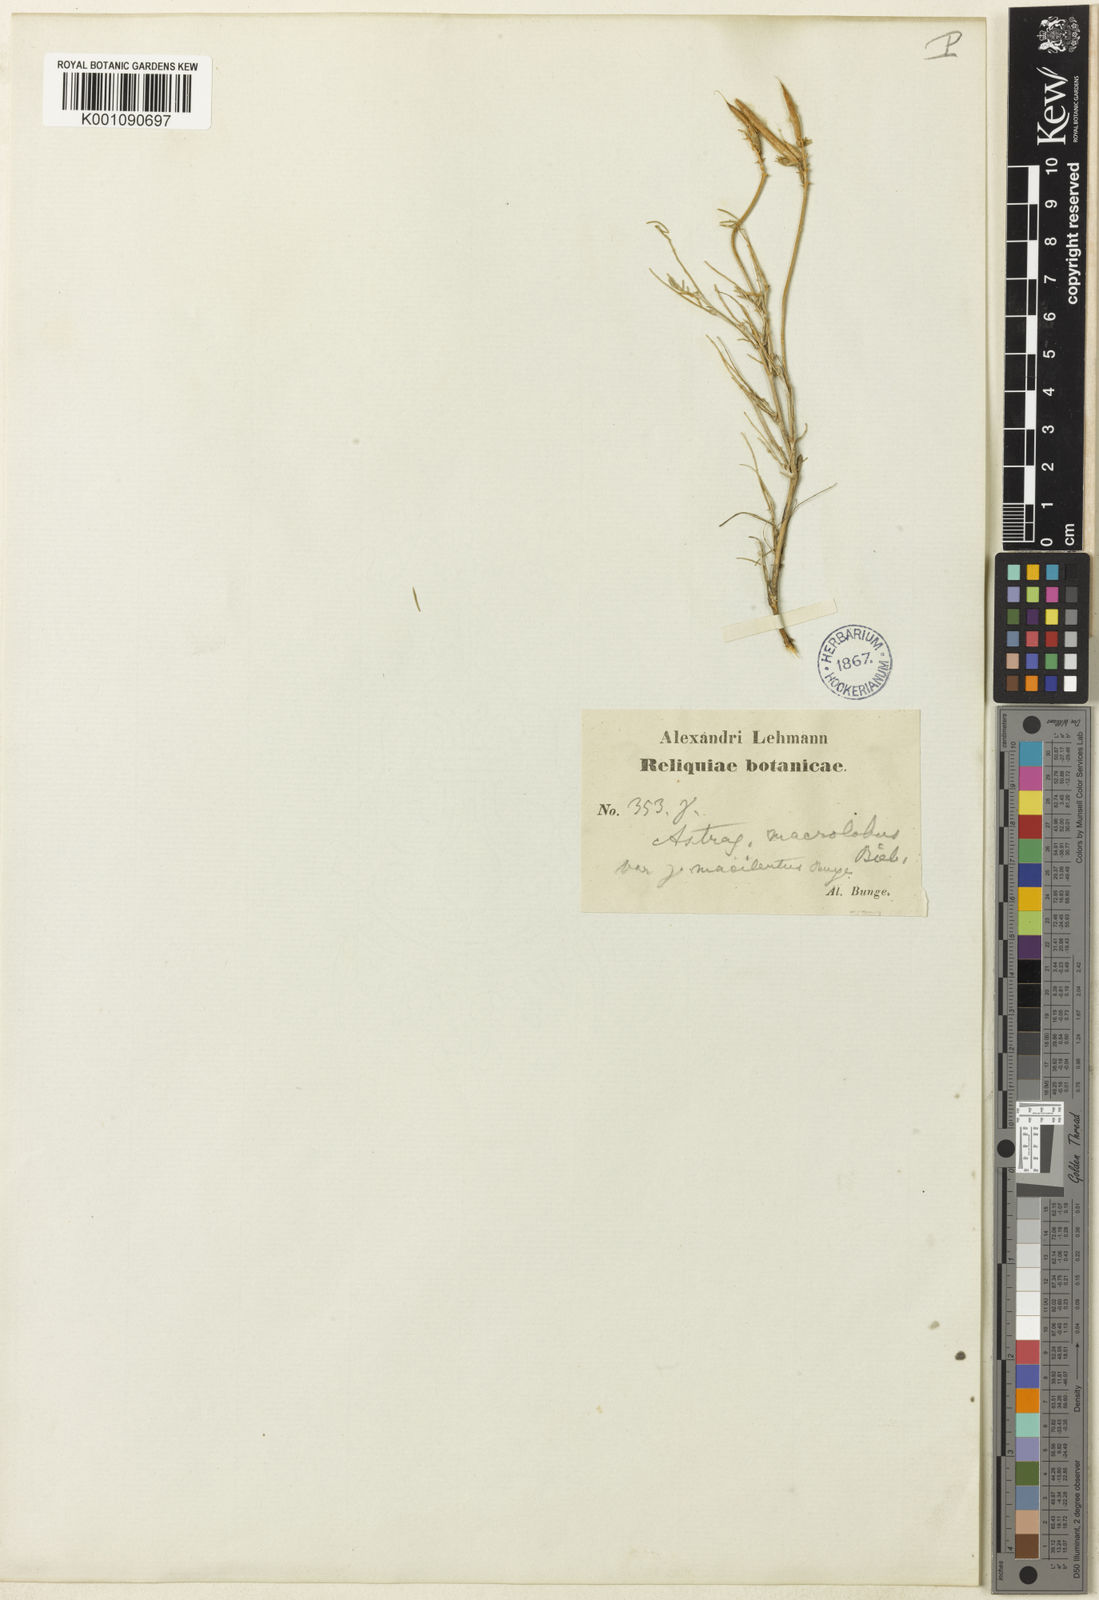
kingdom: Plantae
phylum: Tracheophyta
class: Magnoliopsida
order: Fabales
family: Fabaceae
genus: Astragalus
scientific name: Astragalus
